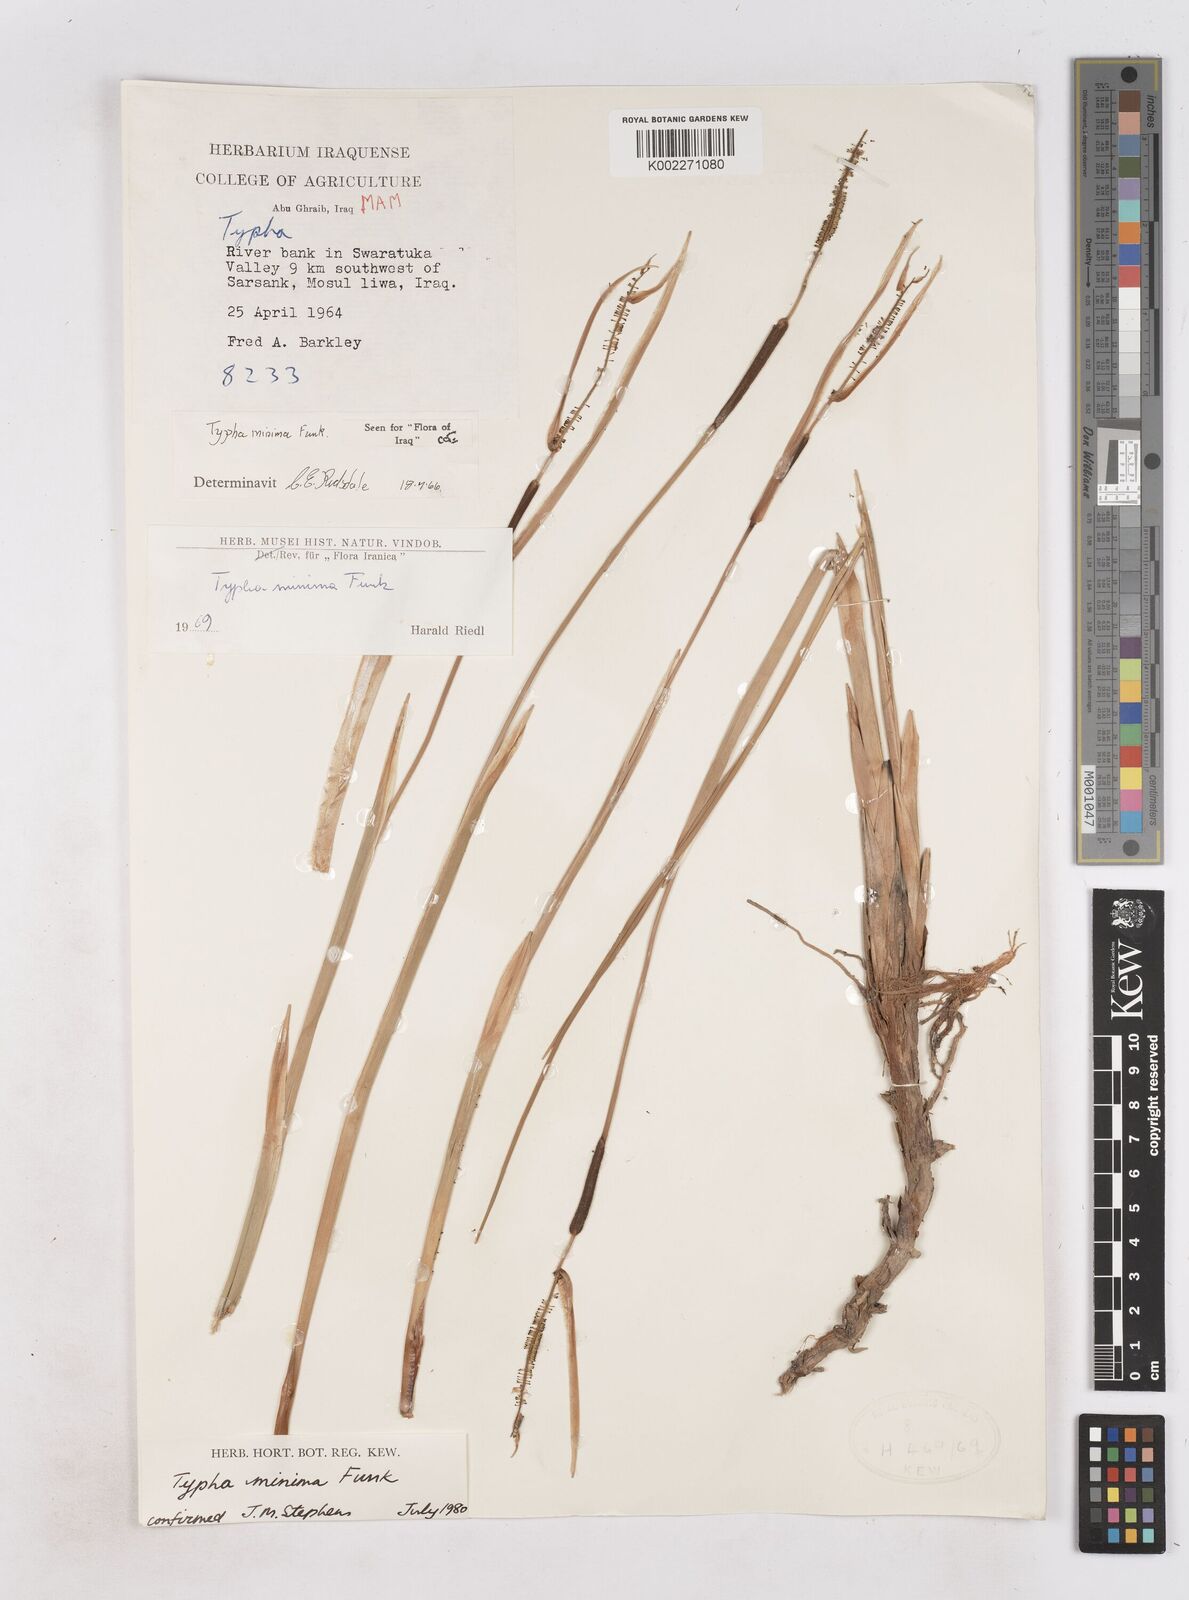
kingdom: Plantae
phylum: Tracheophyta
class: Liliopsida
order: Poales
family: Typhaceae
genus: Typha
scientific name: Typha minima
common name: Dwarf bulrush
